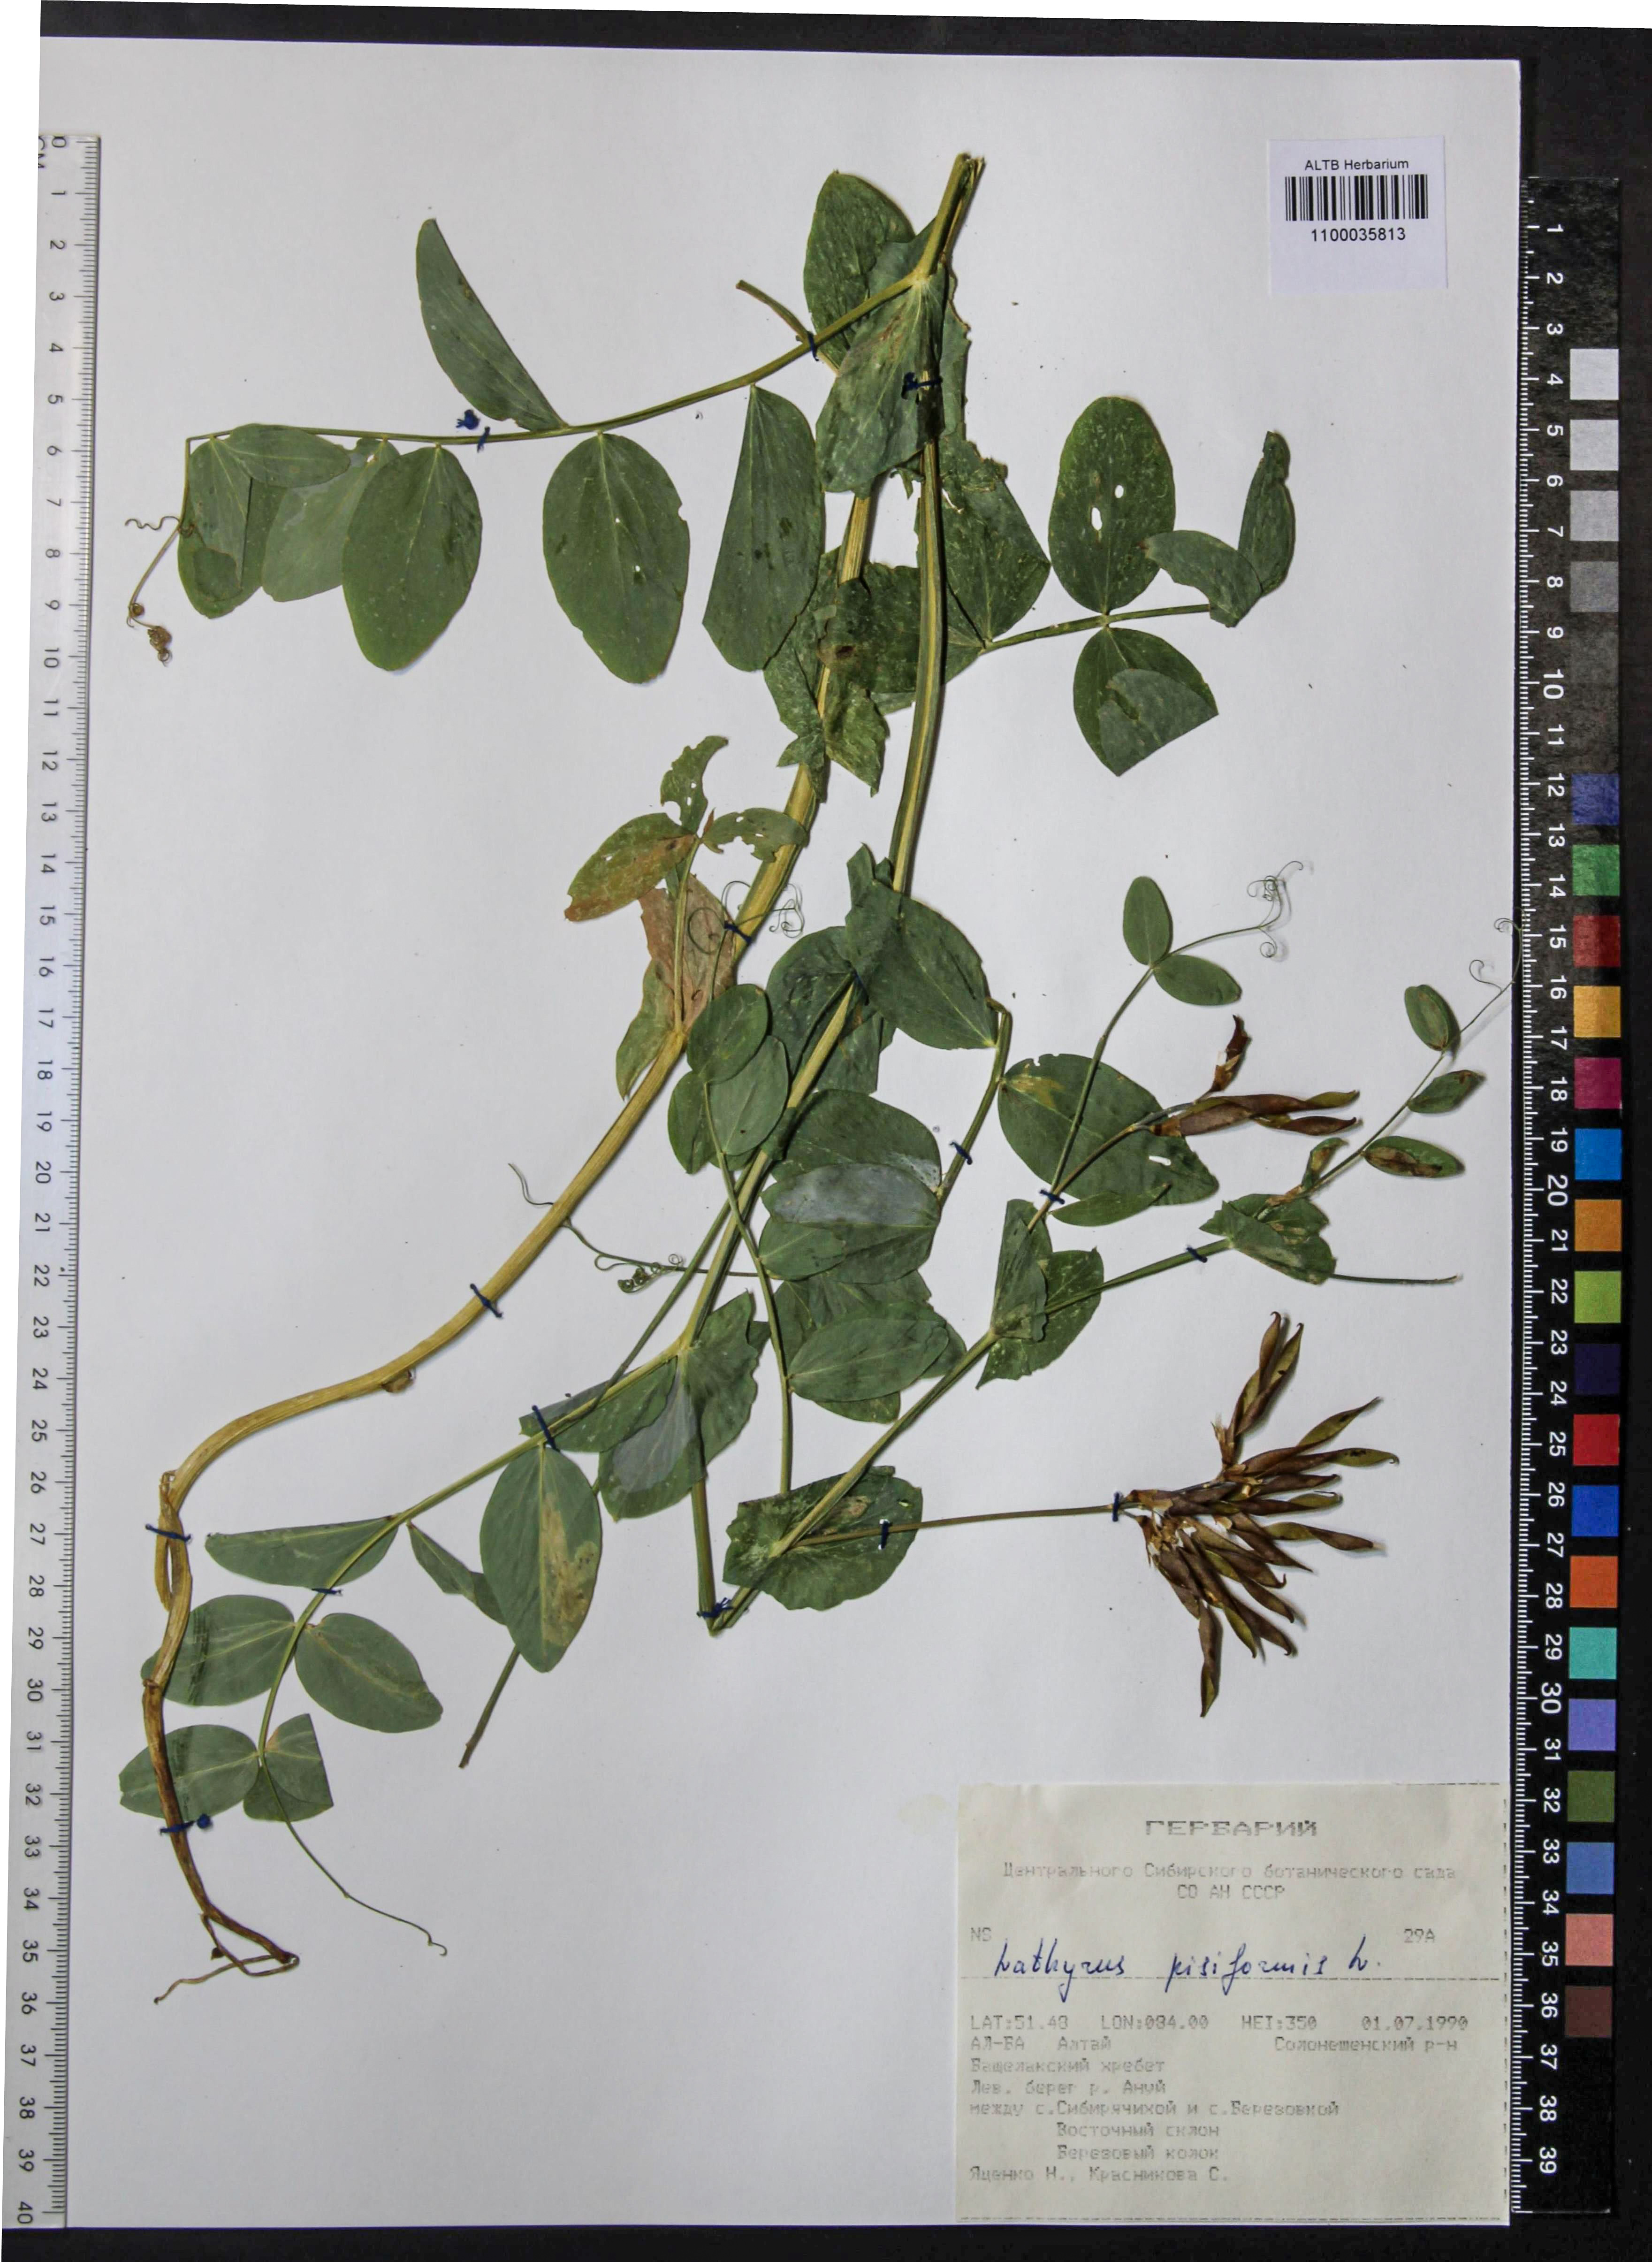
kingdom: Plantae
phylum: Tracheophyta
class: Magnoliopsida
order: Fabales
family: Fabaceae
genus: Lathyrus
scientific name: Lathyrus pisiformis
